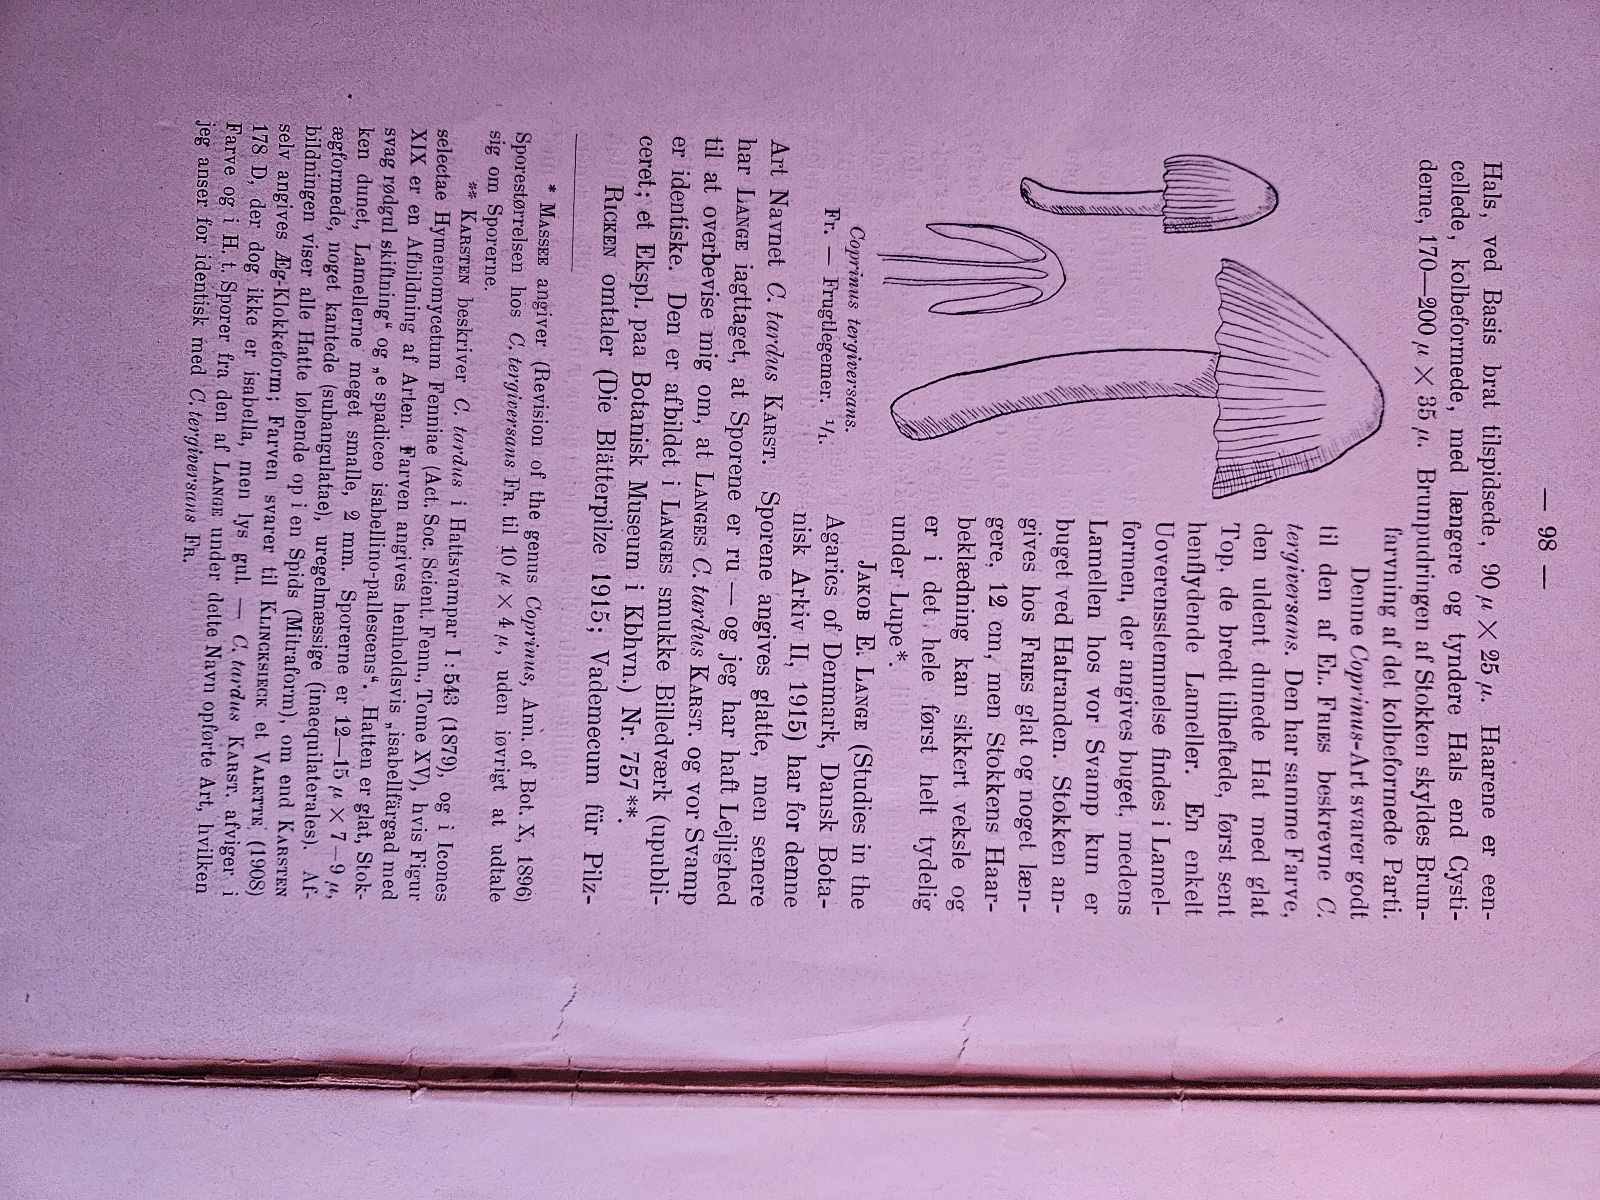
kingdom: Fungi
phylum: Basidiomycota
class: Agaricomycetes
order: Agaricales
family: Psathyrellaceae
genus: Coprinellus
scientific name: Coprinellus deliquescens
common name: rusporet blækhat
